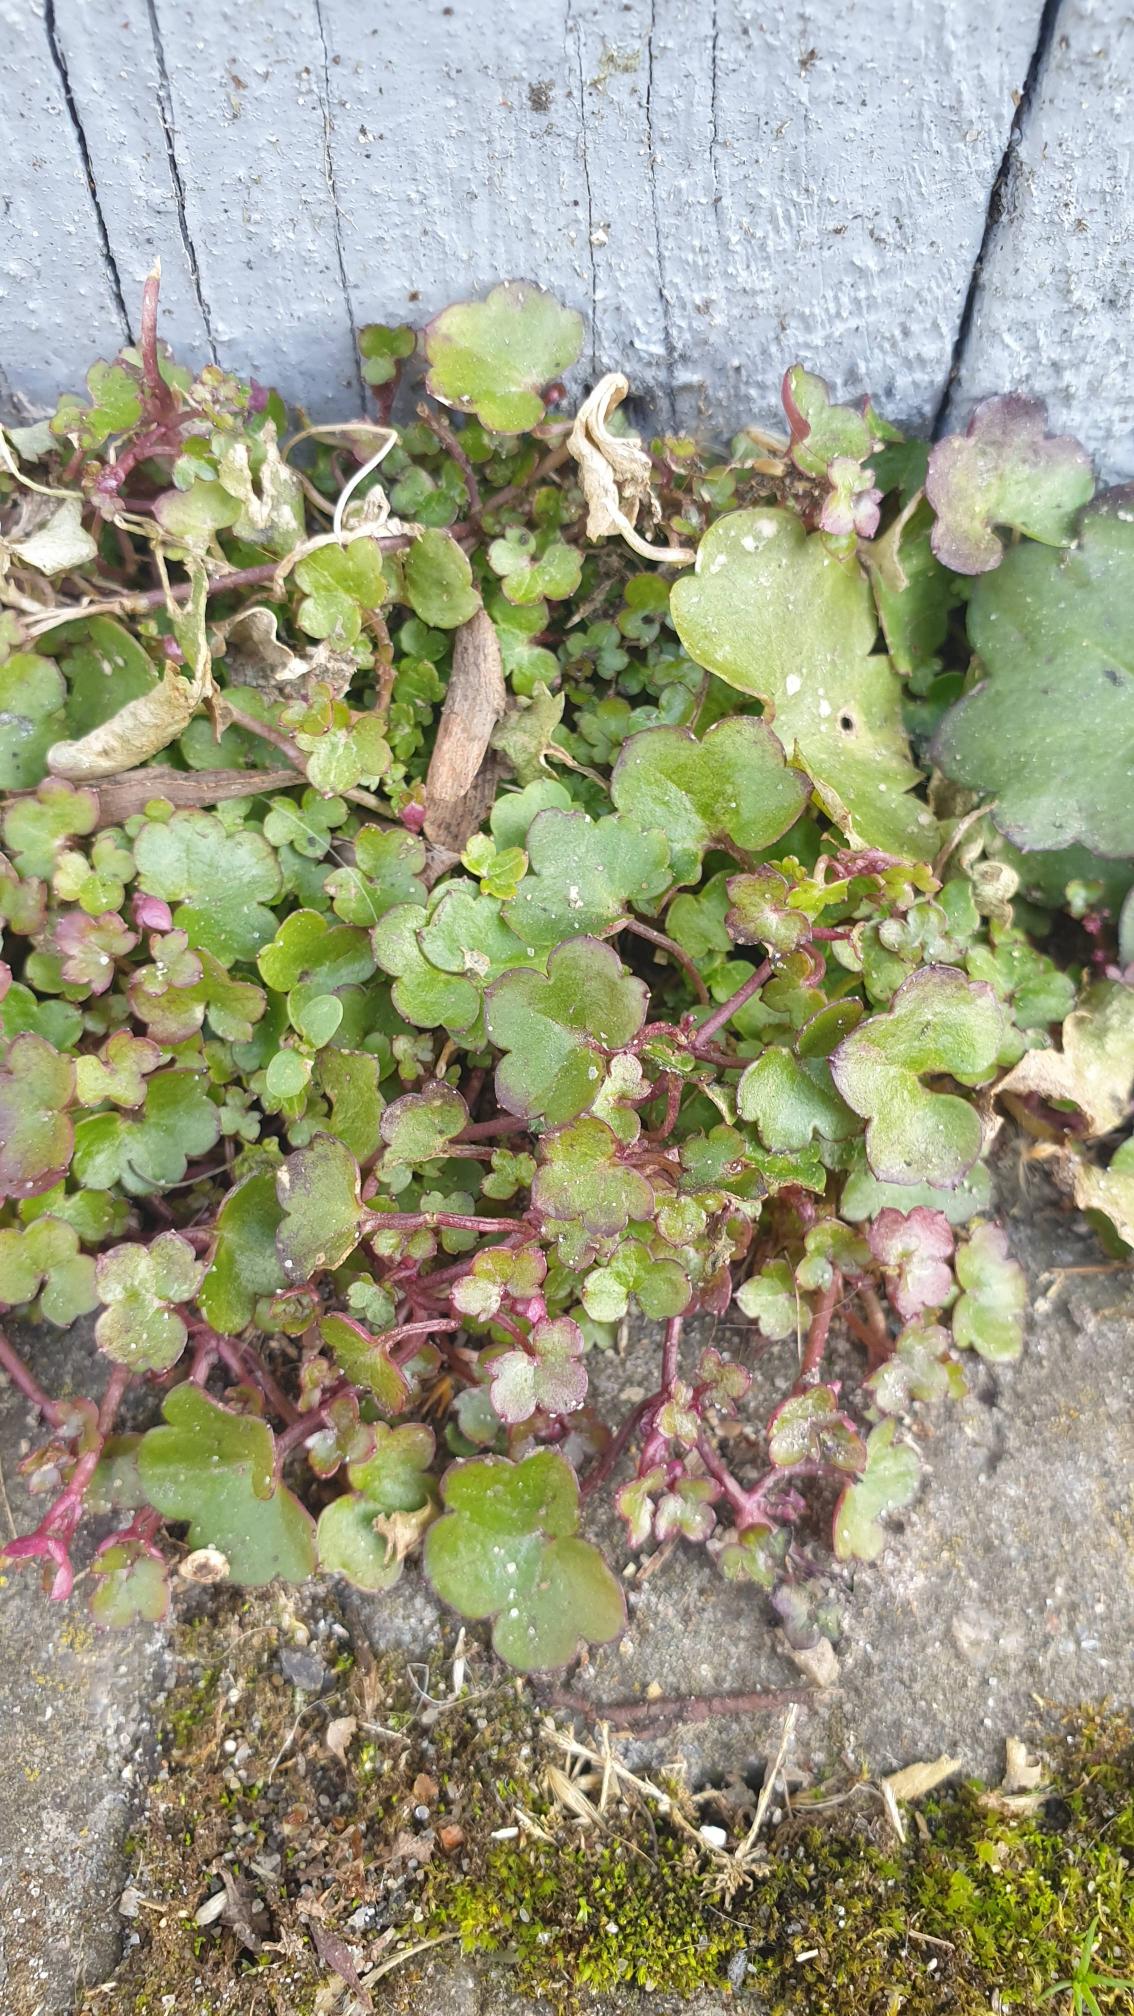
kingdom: Plantae
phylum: Tracheophyta
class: Magnoliopsida
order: Lamiales
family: Plantaginaceae
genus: Cymbalaria
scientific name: Cymbalaria muralis
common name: Vedbend-torskemund
